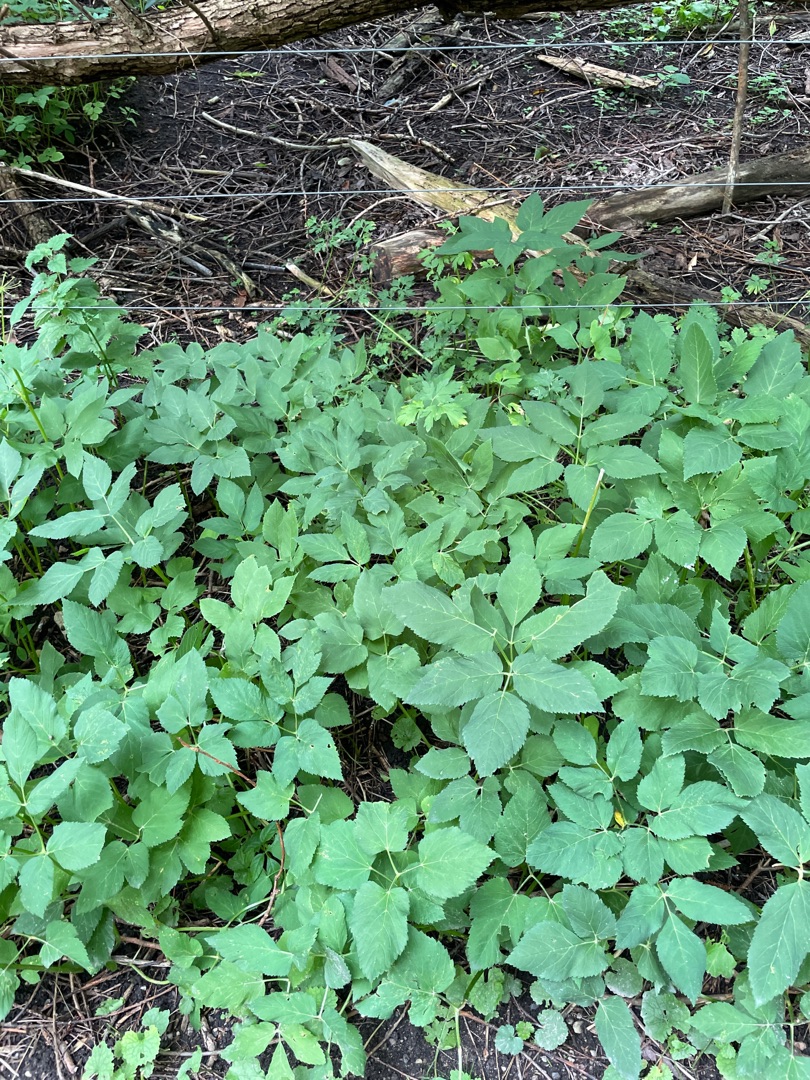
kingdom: Plantae
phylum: Tracheophyta
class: Magnoliopsida
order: Apiales
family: Apiaceae
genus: Aegopodium
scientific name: Aegopodium podagraria
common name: Skvalderkål
